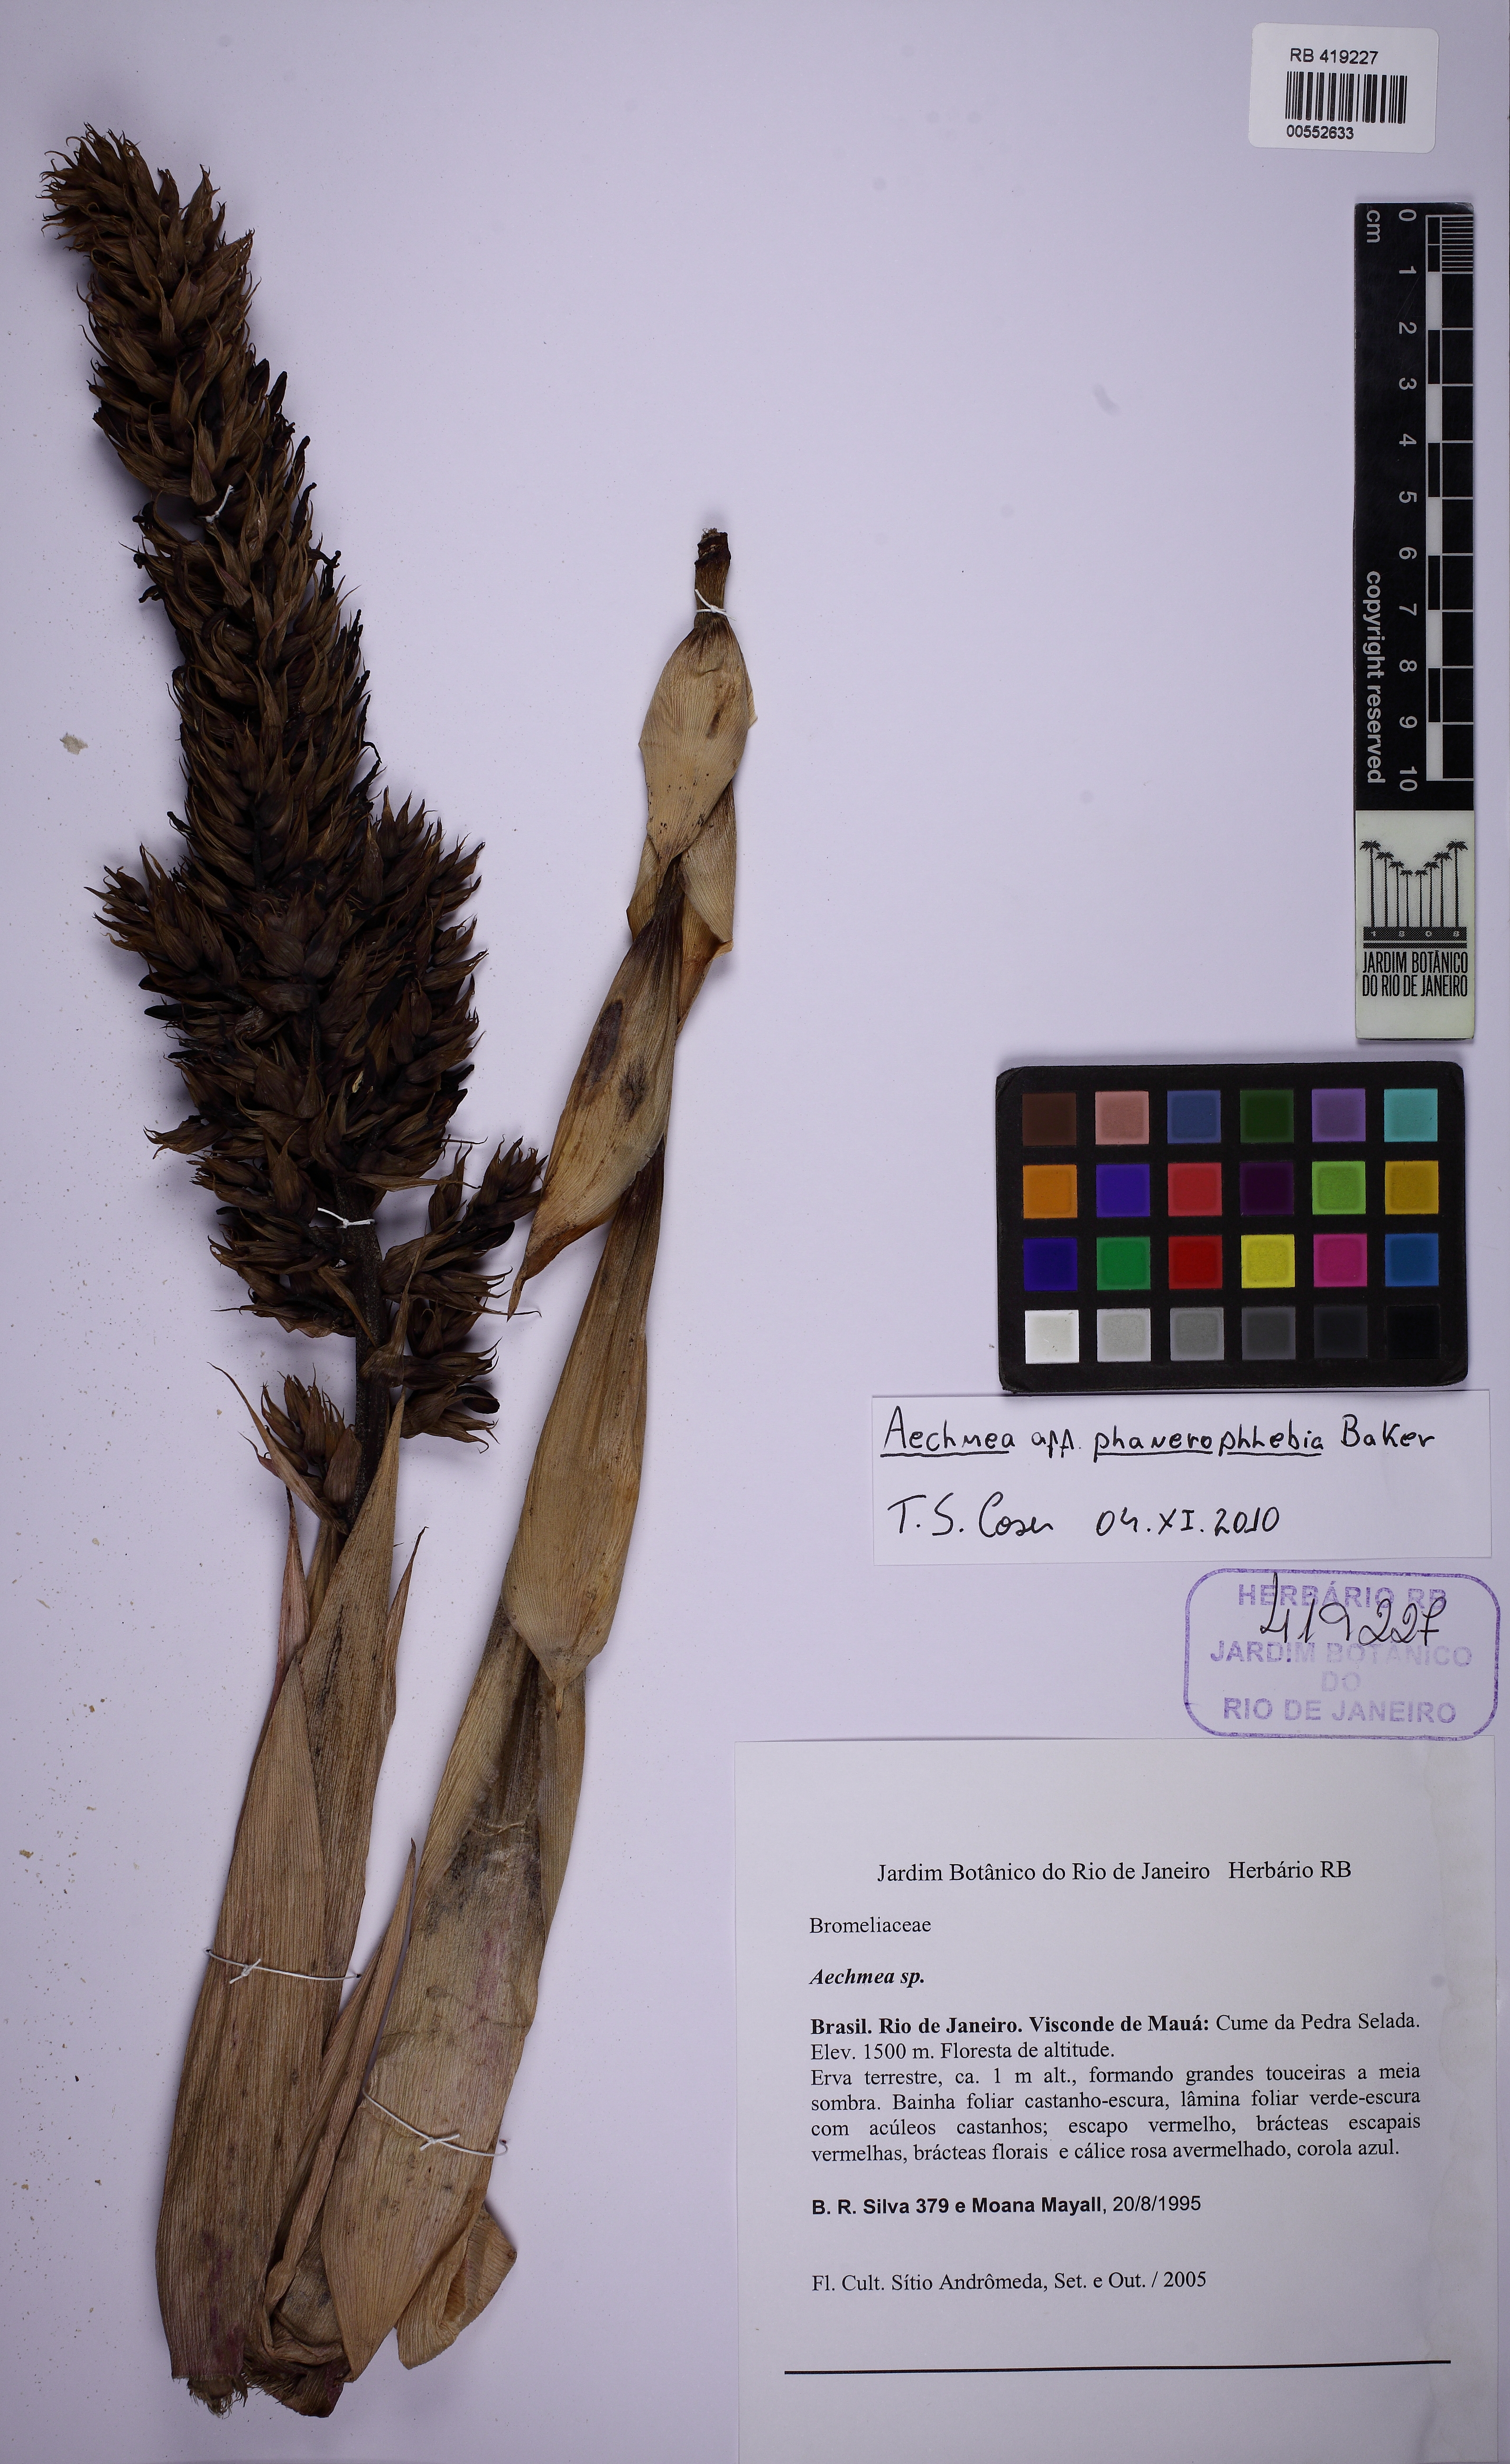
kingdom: Plantae
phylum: Tracheophyta
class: Liliopsida
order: Poales
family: Bromeliaceae
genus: Aechmea
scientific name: Aechmea phanerophlebia
